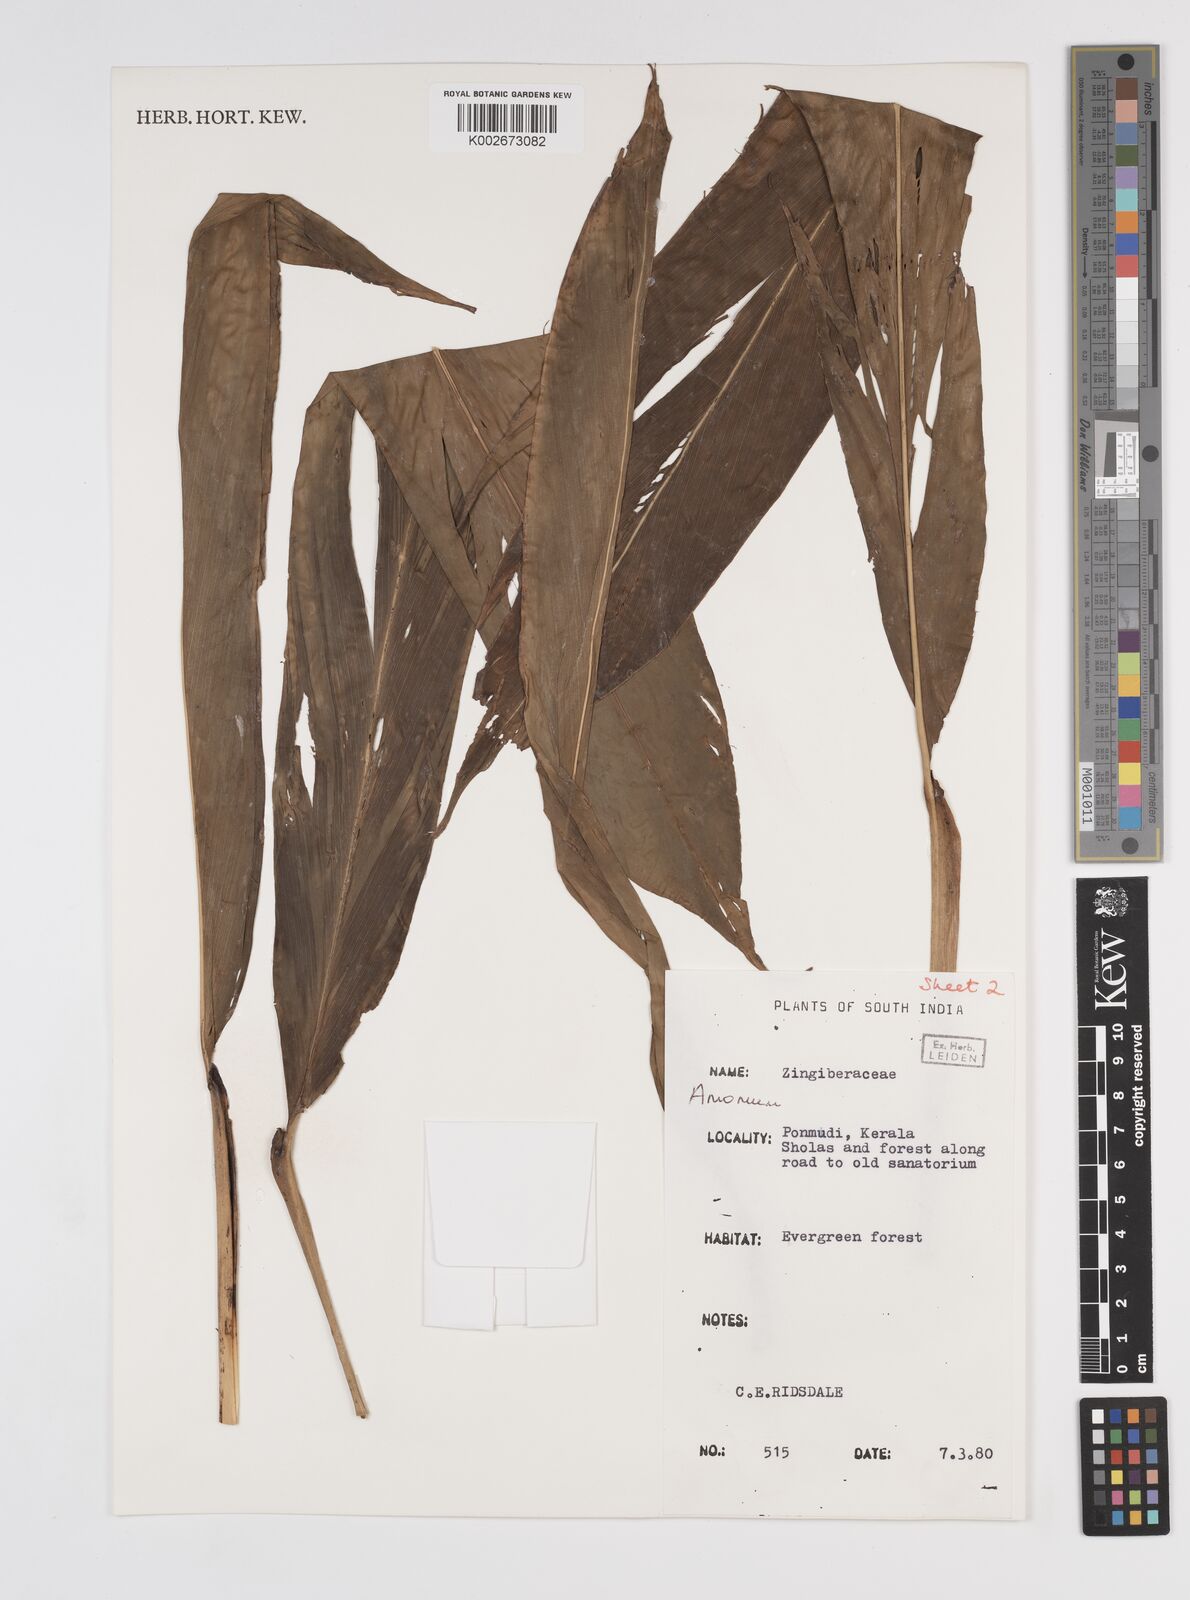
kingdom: Plantae
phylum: Tracheophyta
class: Liliopsida
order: Zingiberales
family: Zingiberaceae
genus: Amomum
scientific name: Amomum
